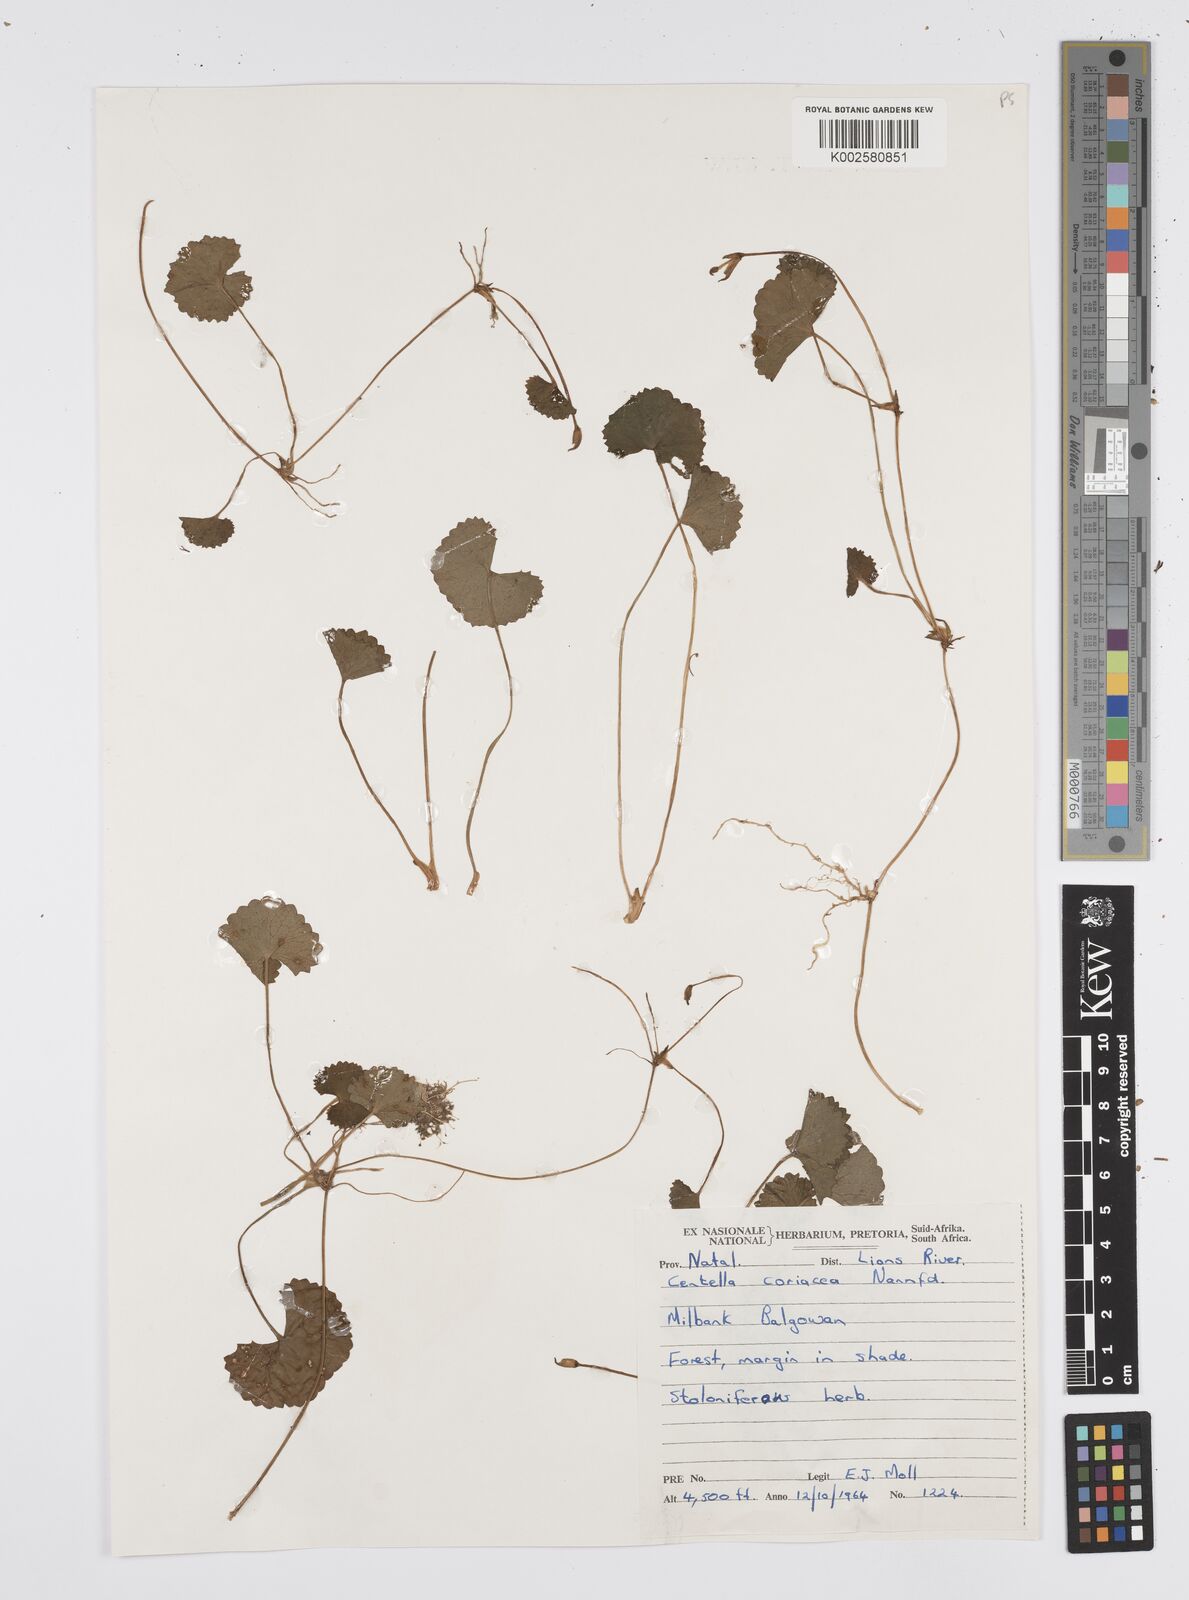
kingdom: Plantae
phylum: Tracheophyta
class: Magnoliopsida
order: Apiales
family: Apiaceae
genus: Centella
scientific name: Centella coriacea
